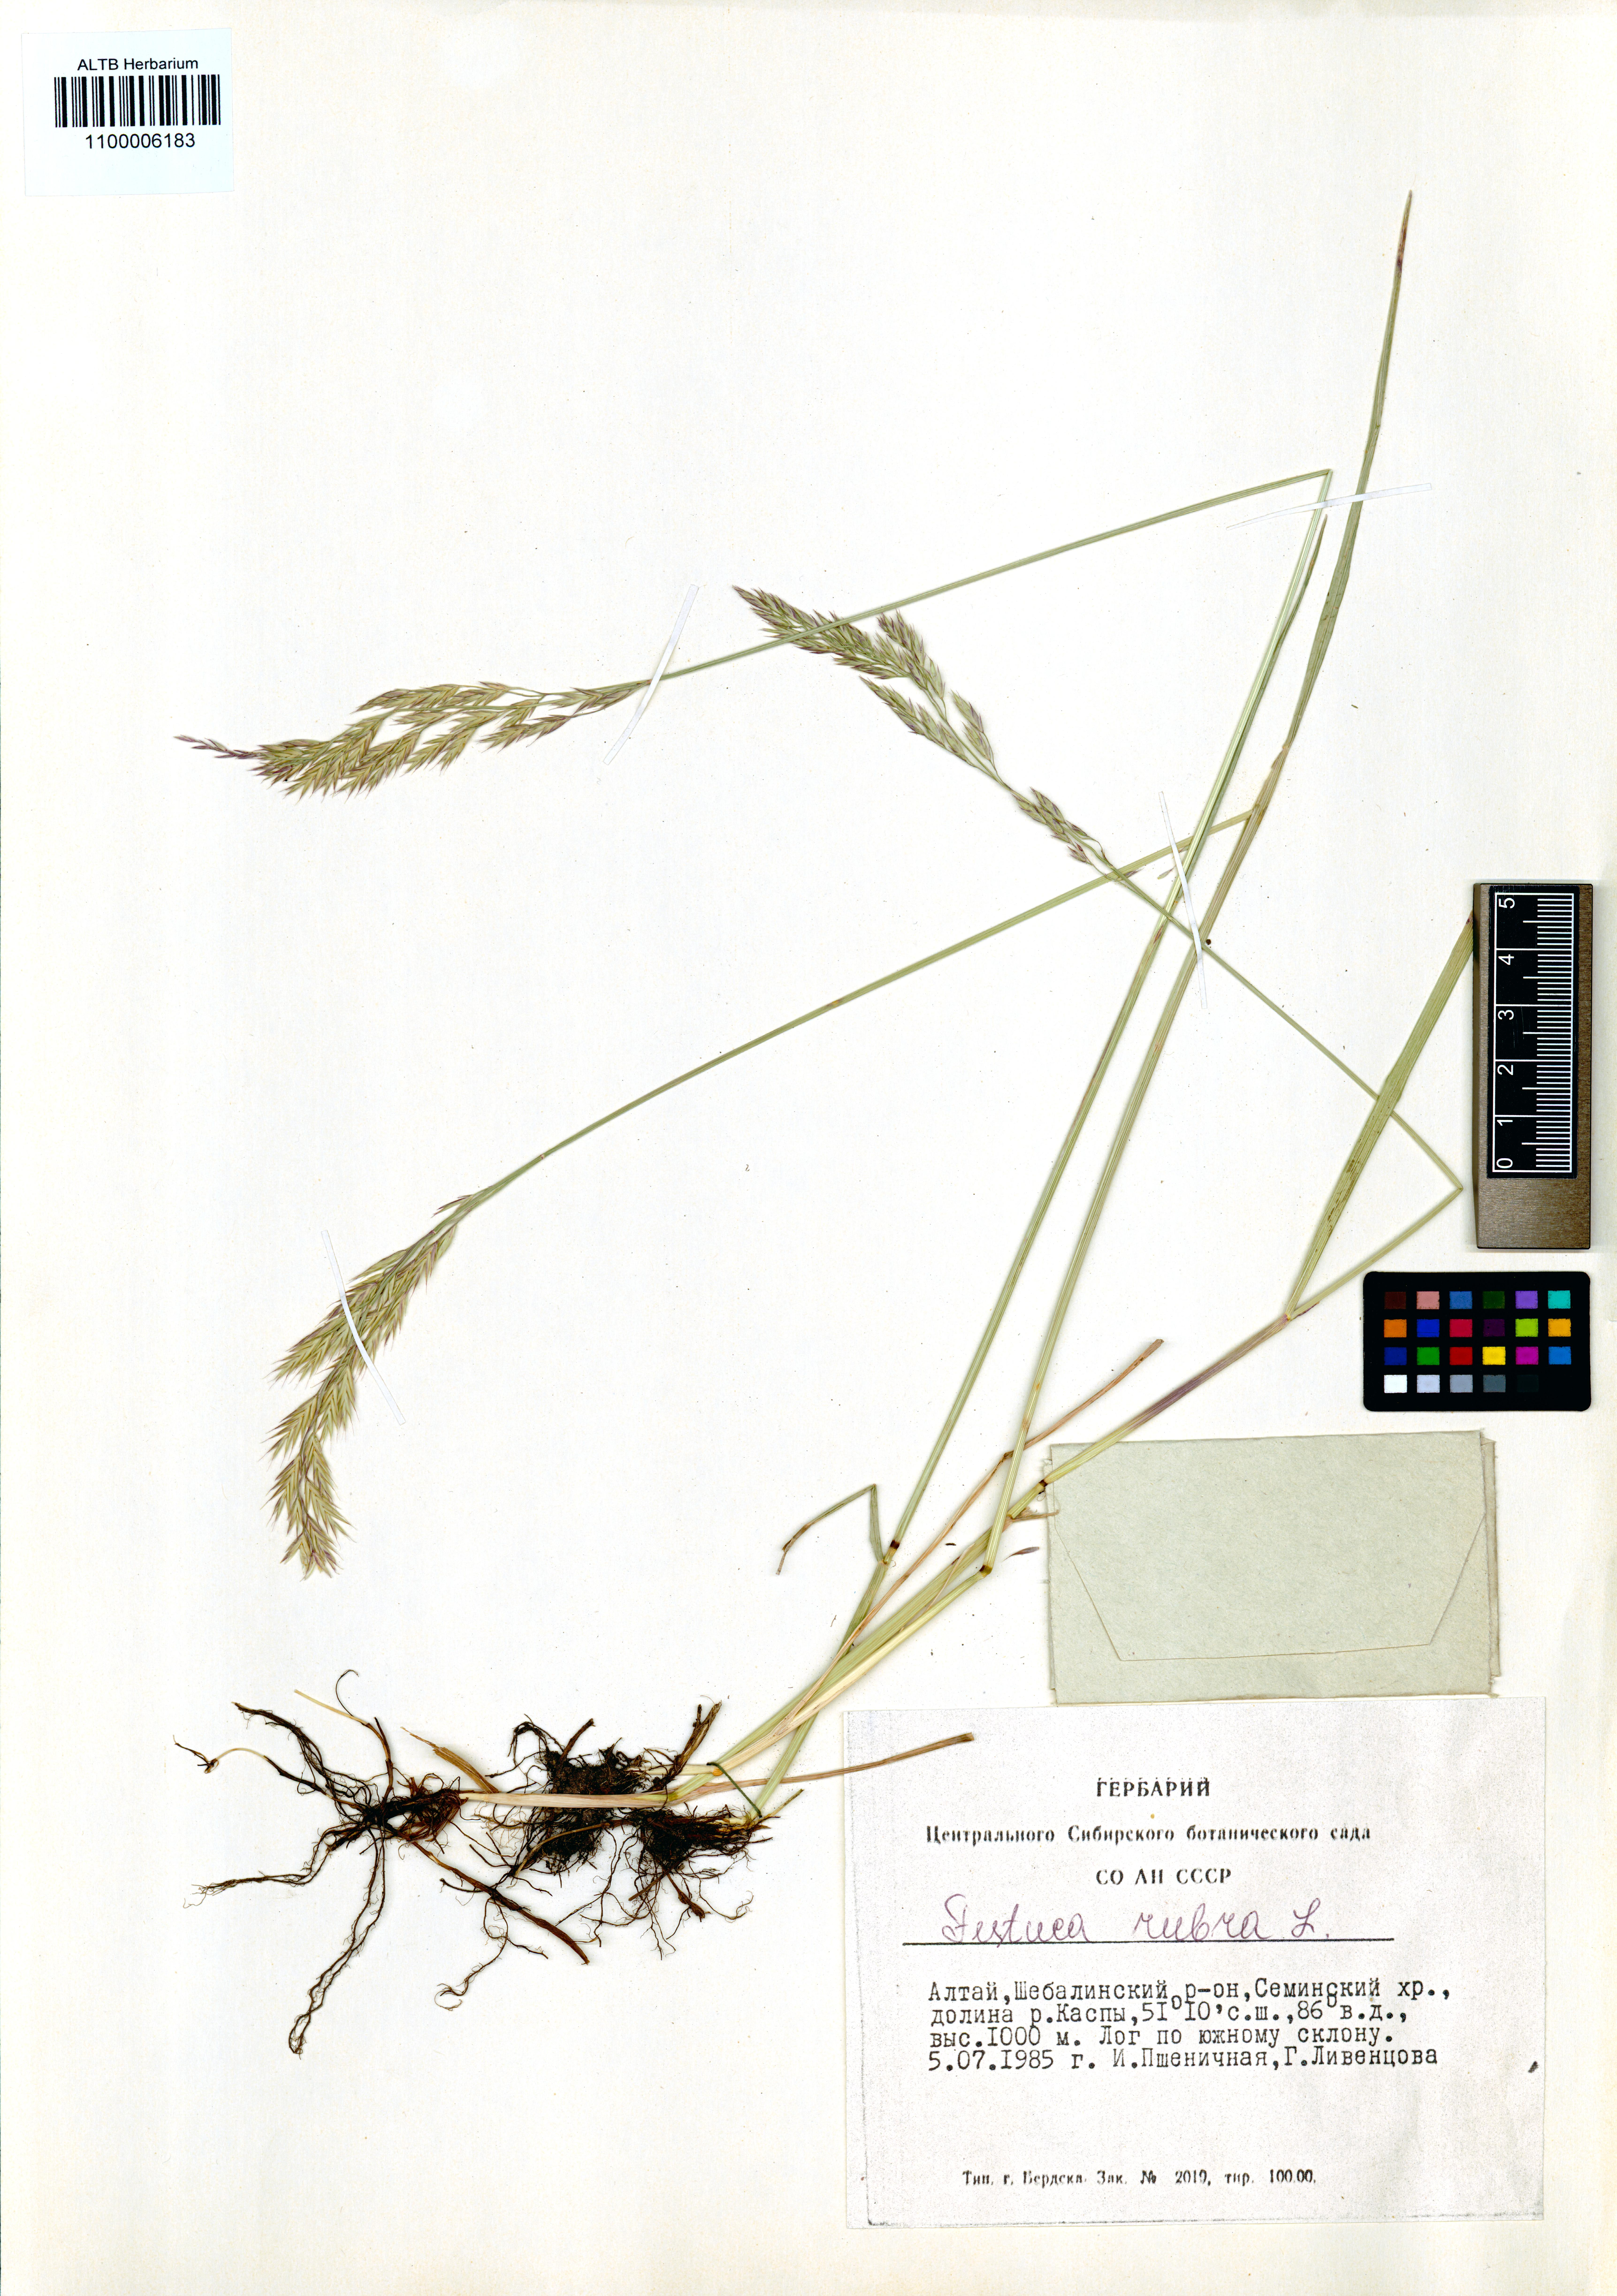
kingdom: Plantae
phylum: Tracheophyta
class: Liliopsida
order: Poales
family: Poaceae
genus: Festuca
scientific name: Festuca rubra
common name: Red fescue
